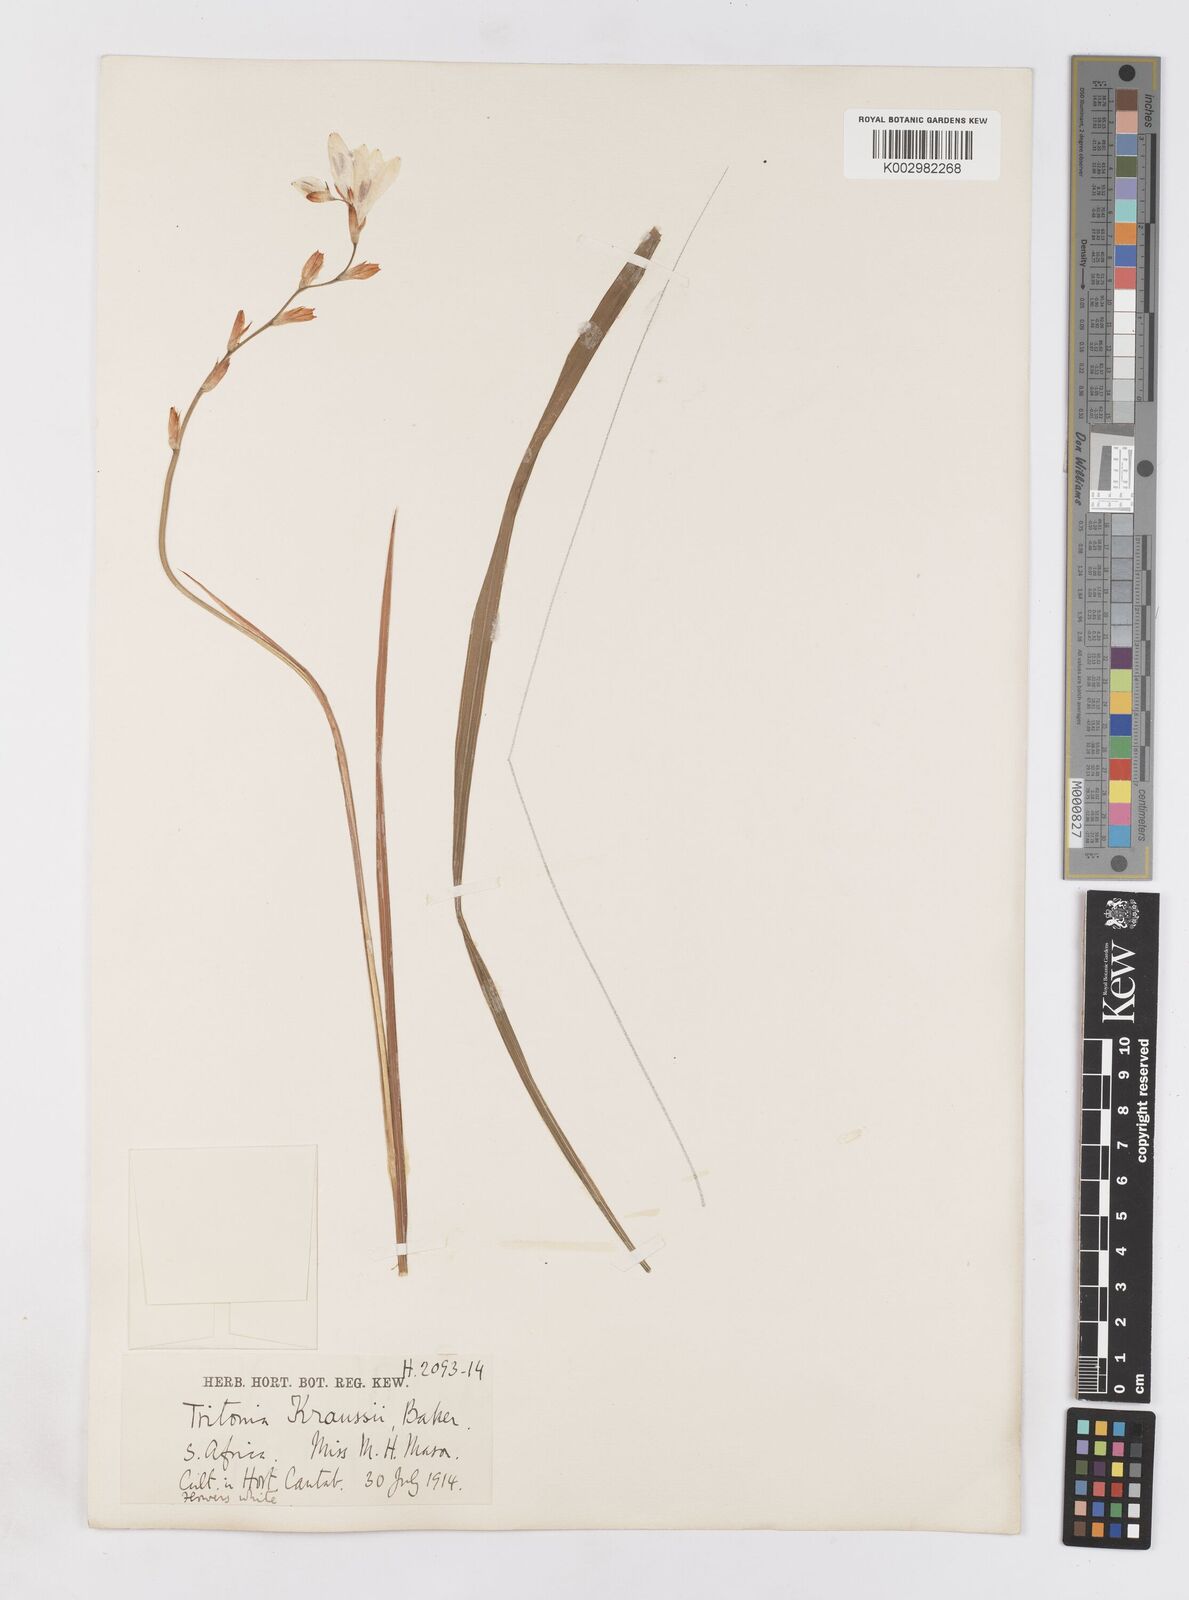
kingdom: Plantae
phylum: Tracheophyta
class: Liliopsida
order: Asparagales
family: Iridaceae
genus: Tritonia
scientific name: Tritonia gladiolaris
